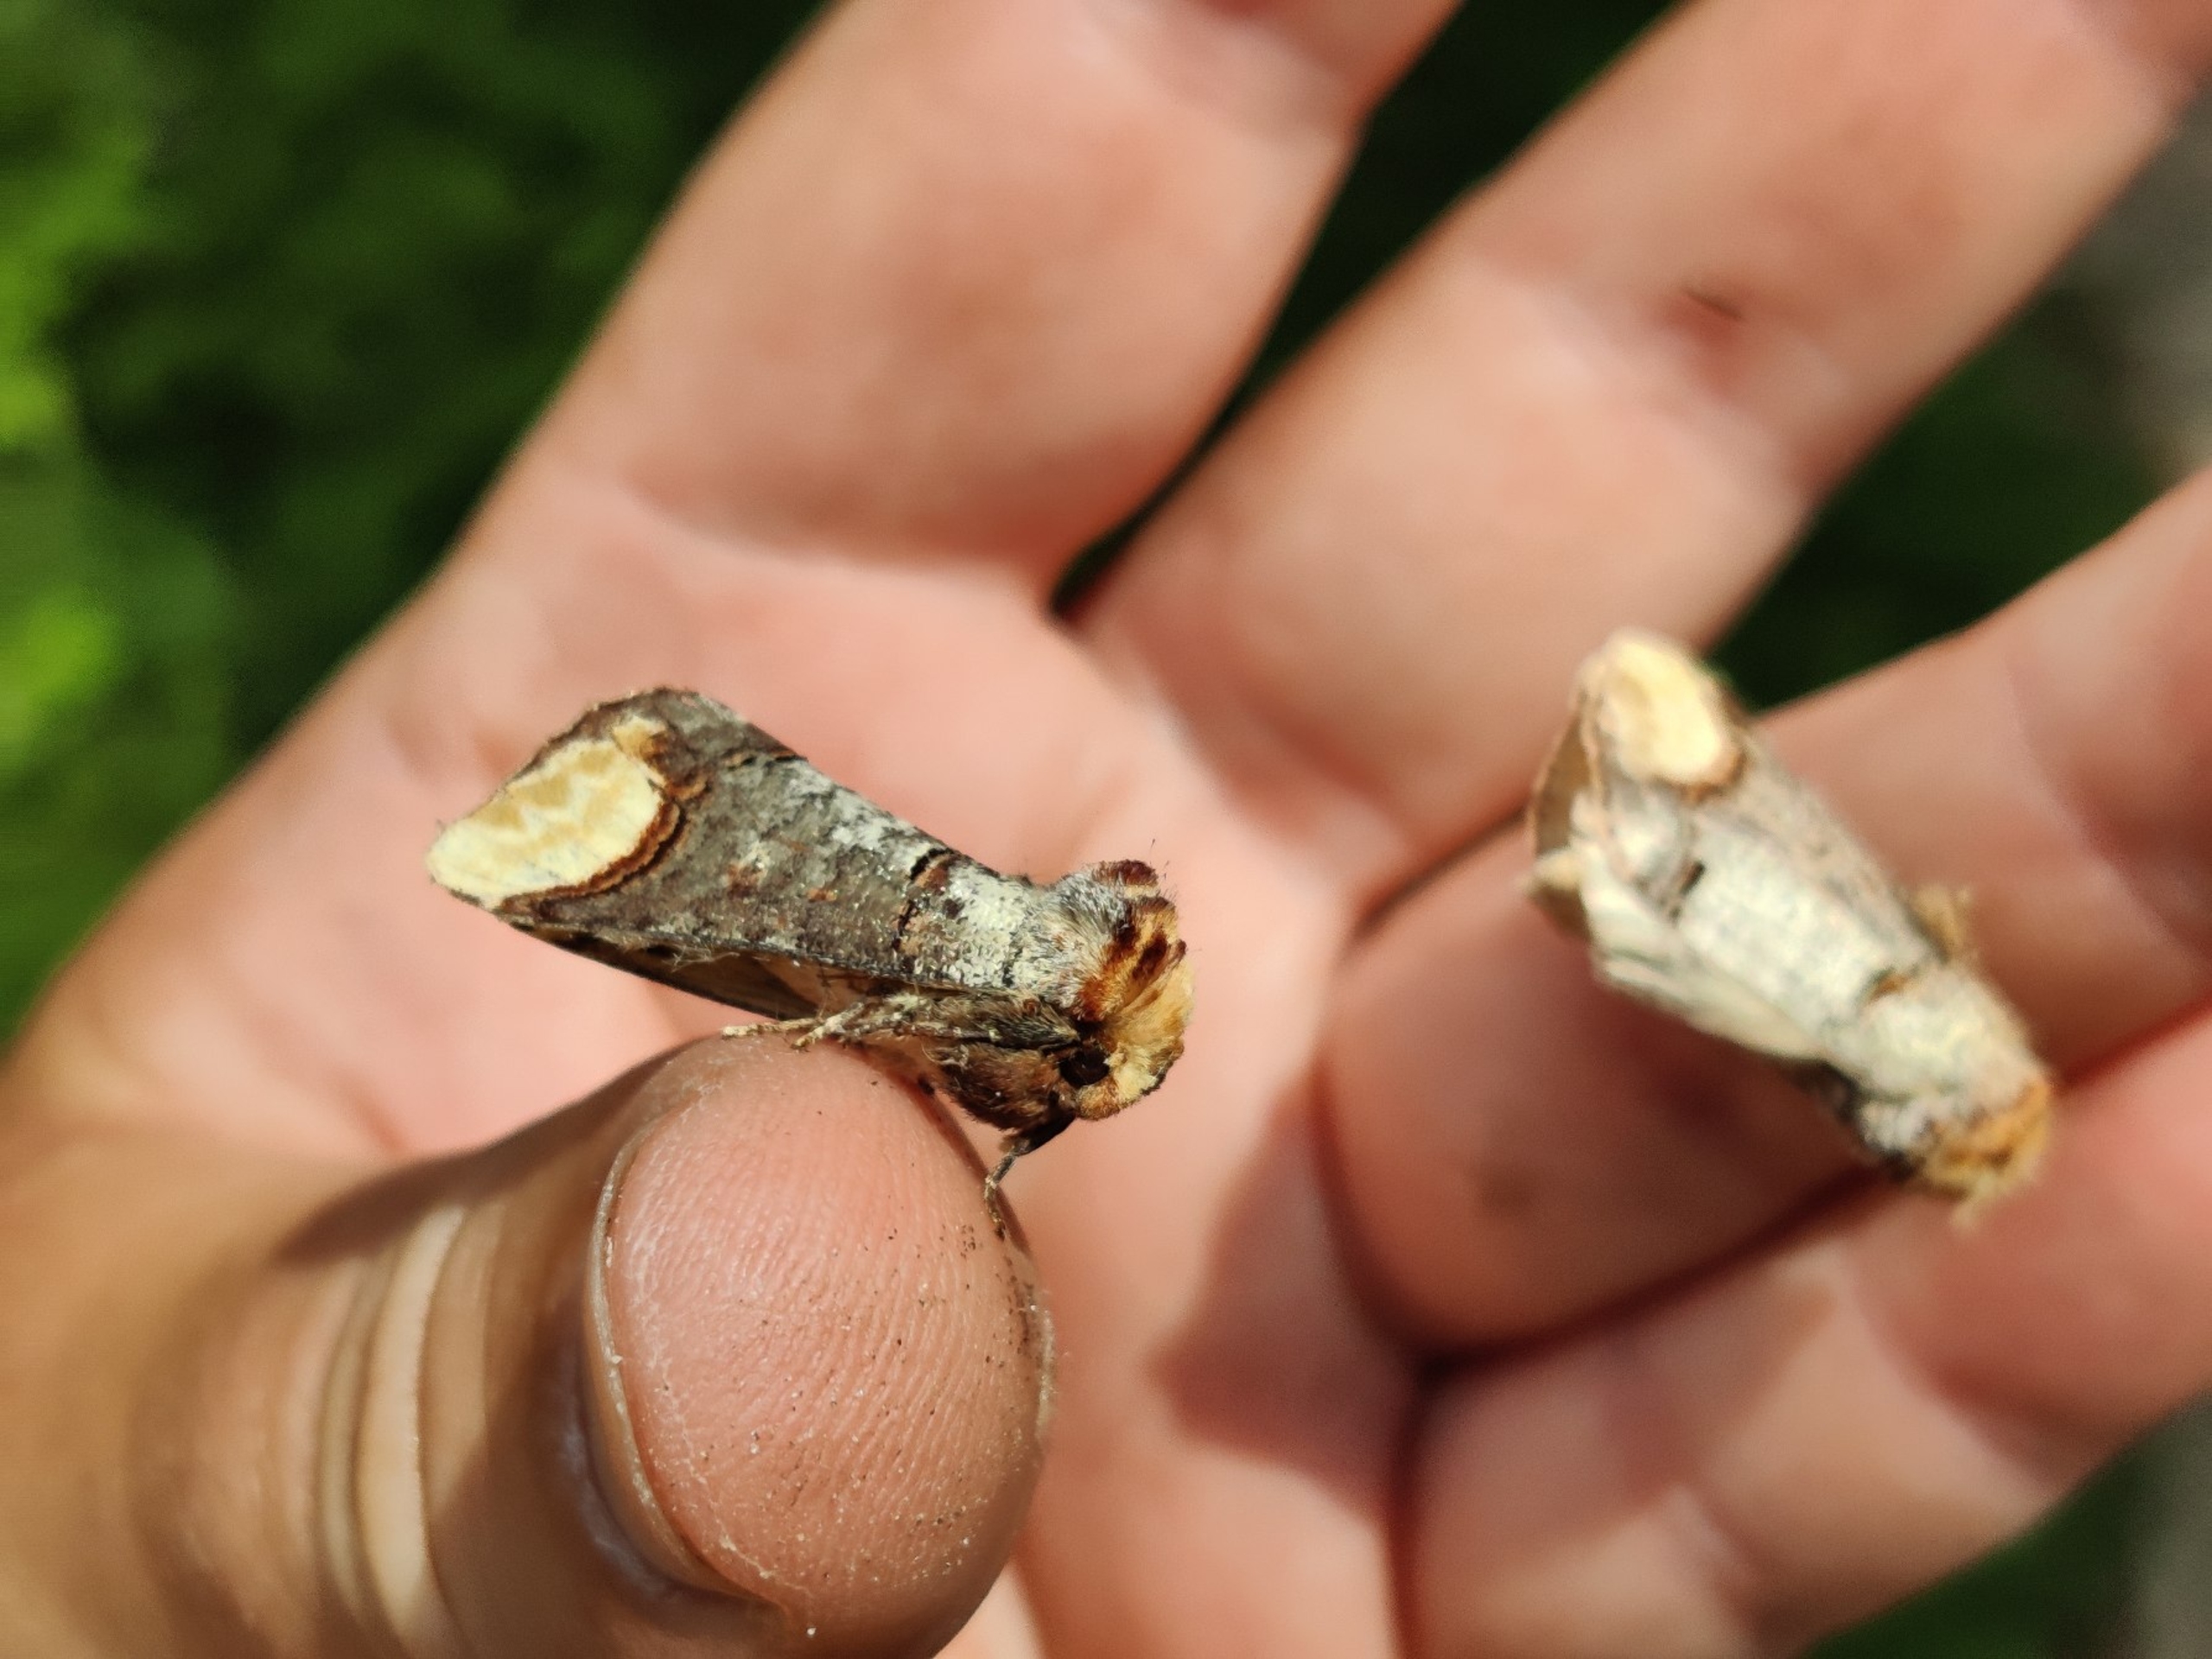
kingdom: Animalia
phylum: Arthropoda
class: Insecta
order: Lepidoptera
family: Notodontidae
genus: Phalera
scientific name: Phalera bucephala
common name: Måneplet
